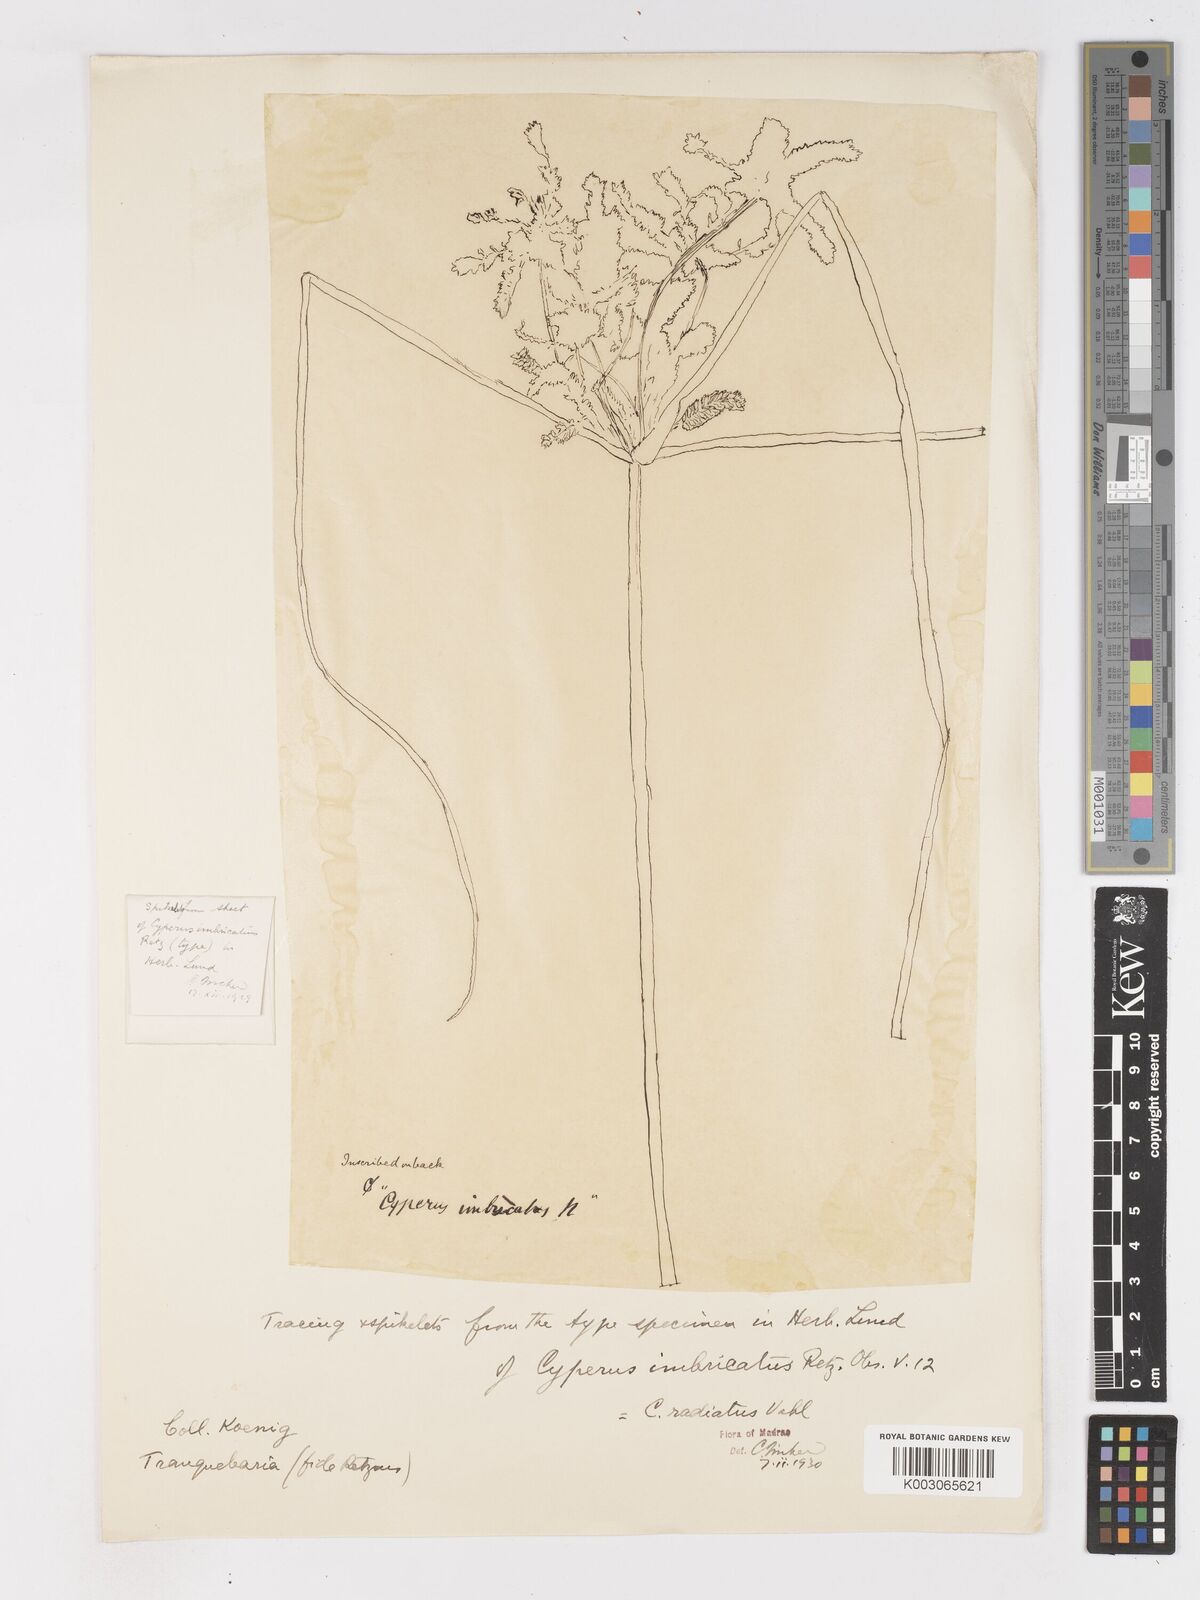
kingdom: Plantae
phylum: Tracheophyta
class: Liliopsida
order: Poales
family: Cyperaceae
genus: Cyperus
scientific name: Cyperus imbricatus
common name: Shingle flatsedge
